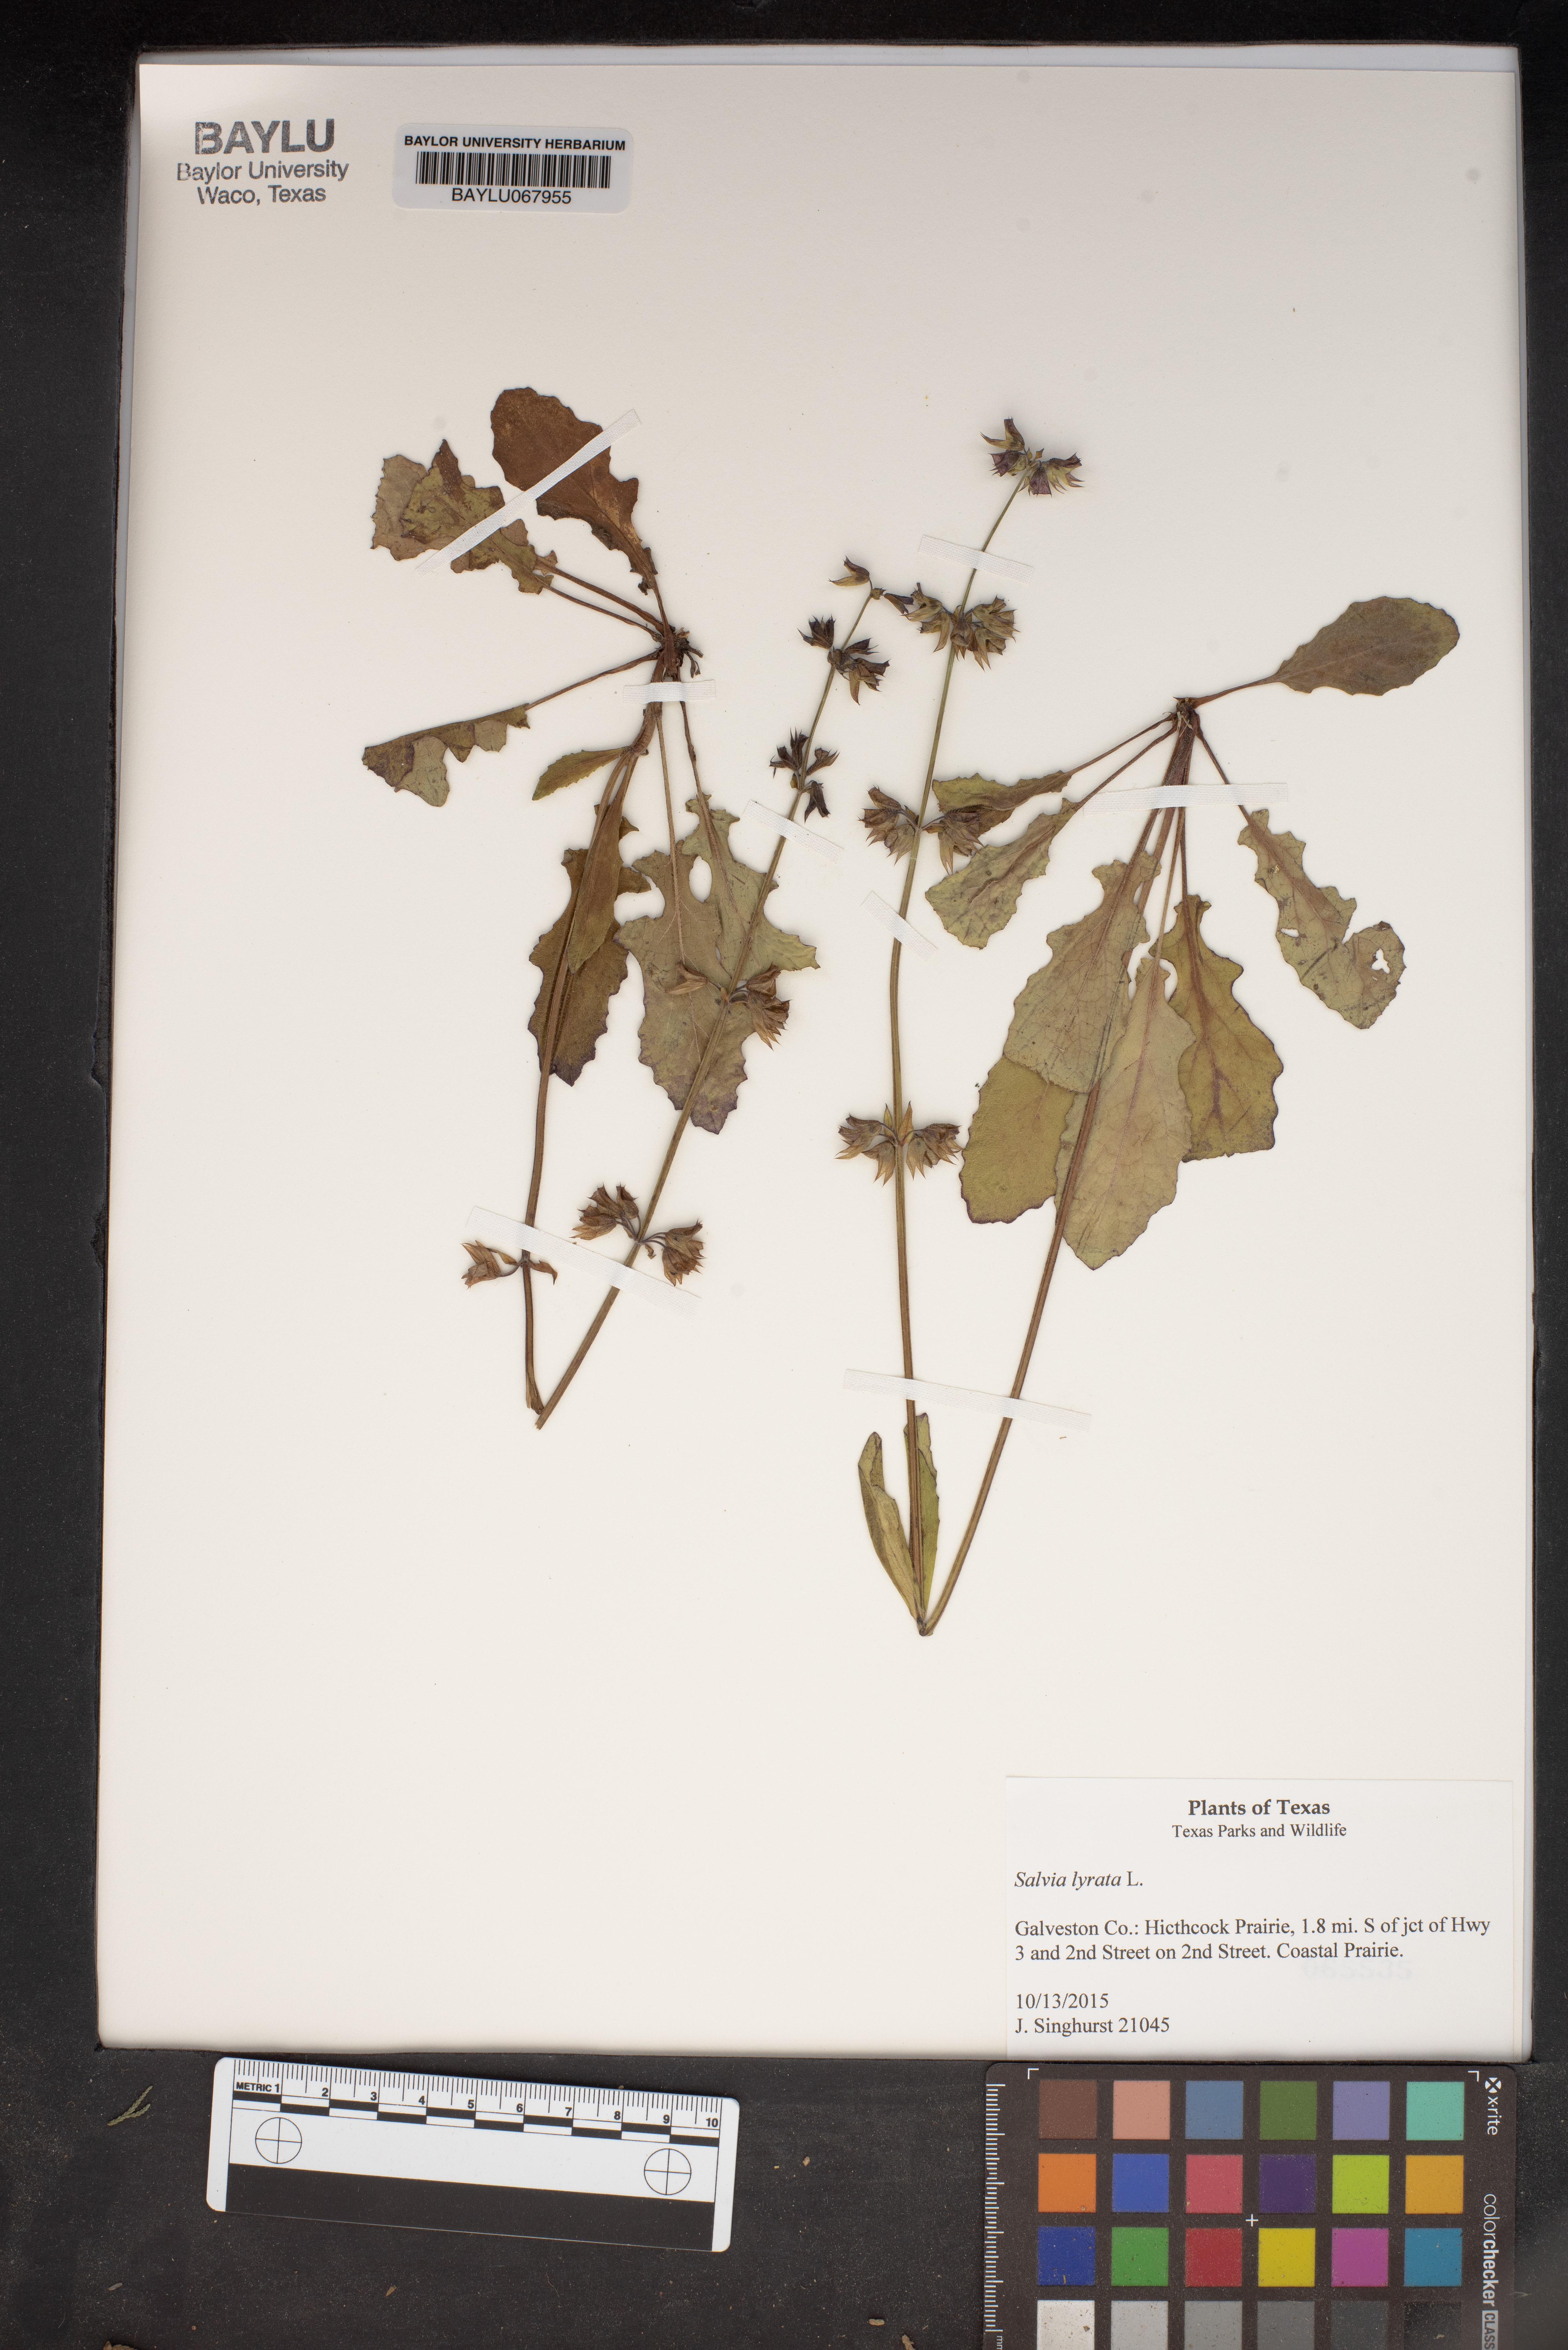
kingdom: Plantae
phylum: Tracheophyta
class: Magnoliopsida
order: Lamiales
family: Lamiaceae
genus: Salvia
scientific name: Salvia lyrata
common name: Cancerweed
